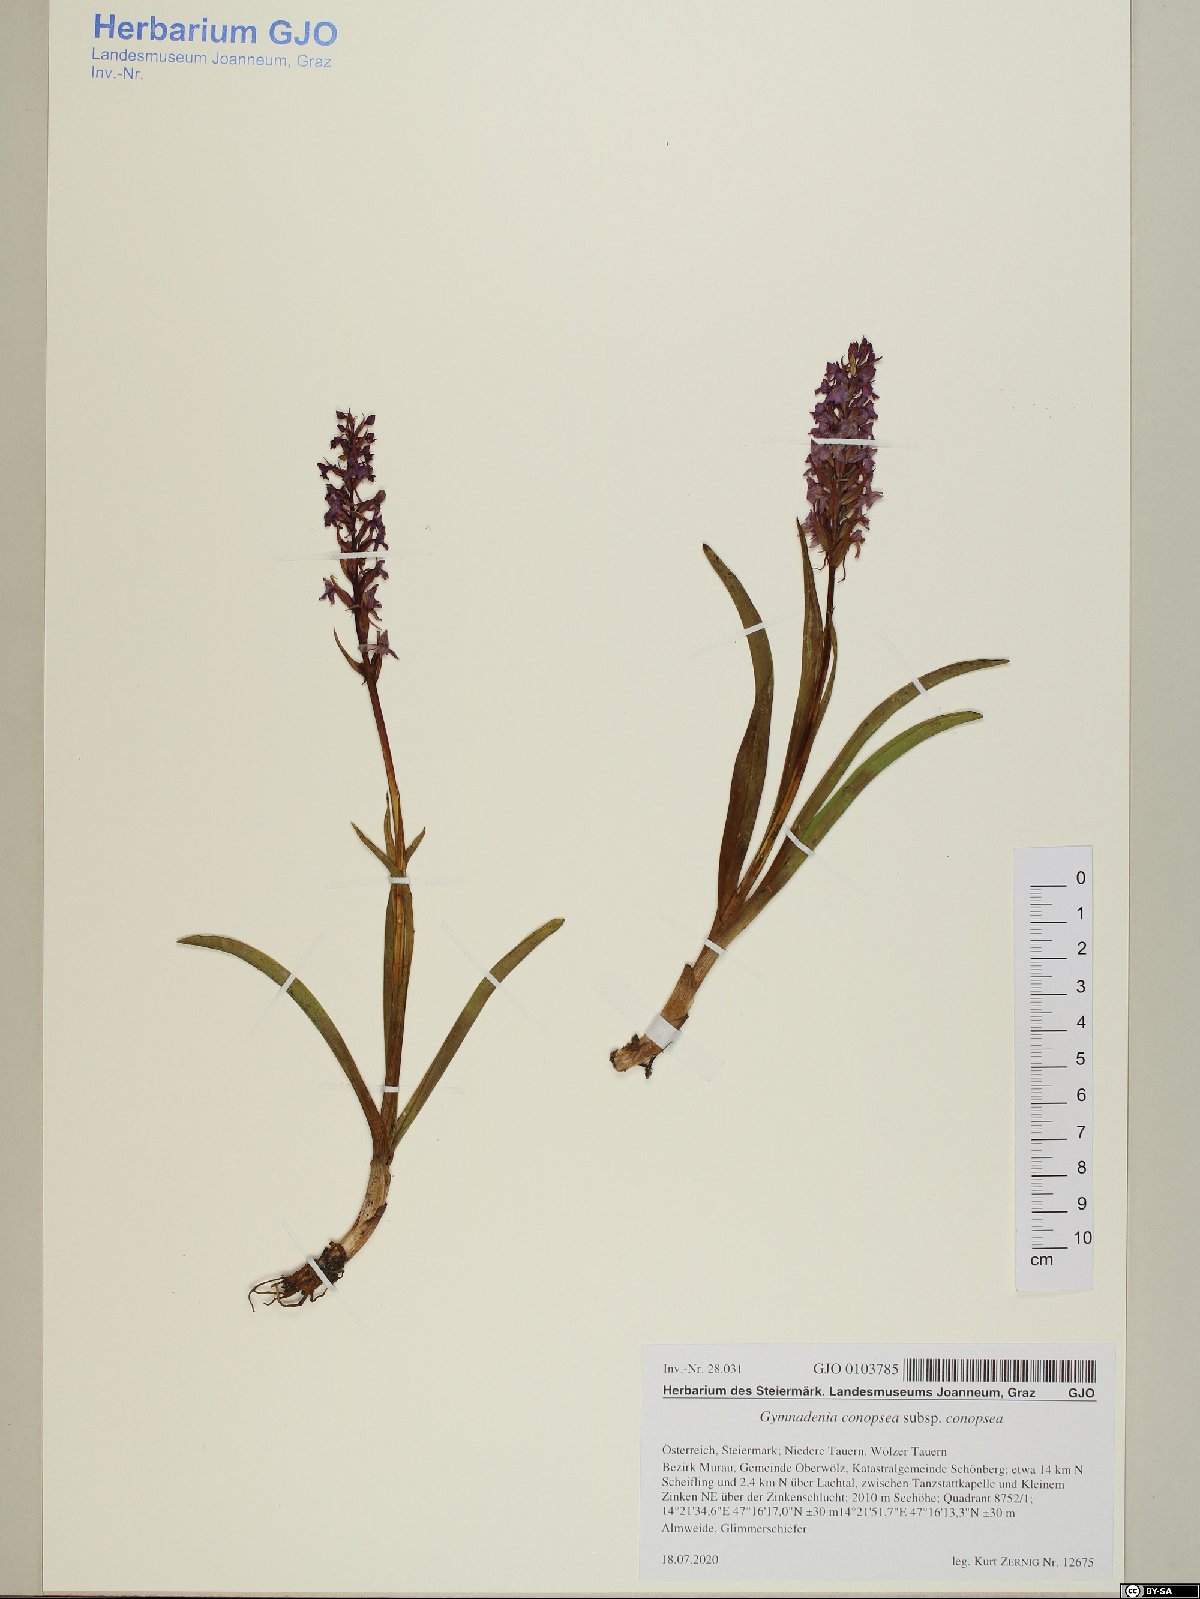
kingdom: Plantae
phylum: Tracheophyta
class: Liliopsida
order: Asparagales
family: Orchidaceae
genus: Gymnadenia
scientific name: Gymnadenia conopsea
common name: Fragrant orchid
